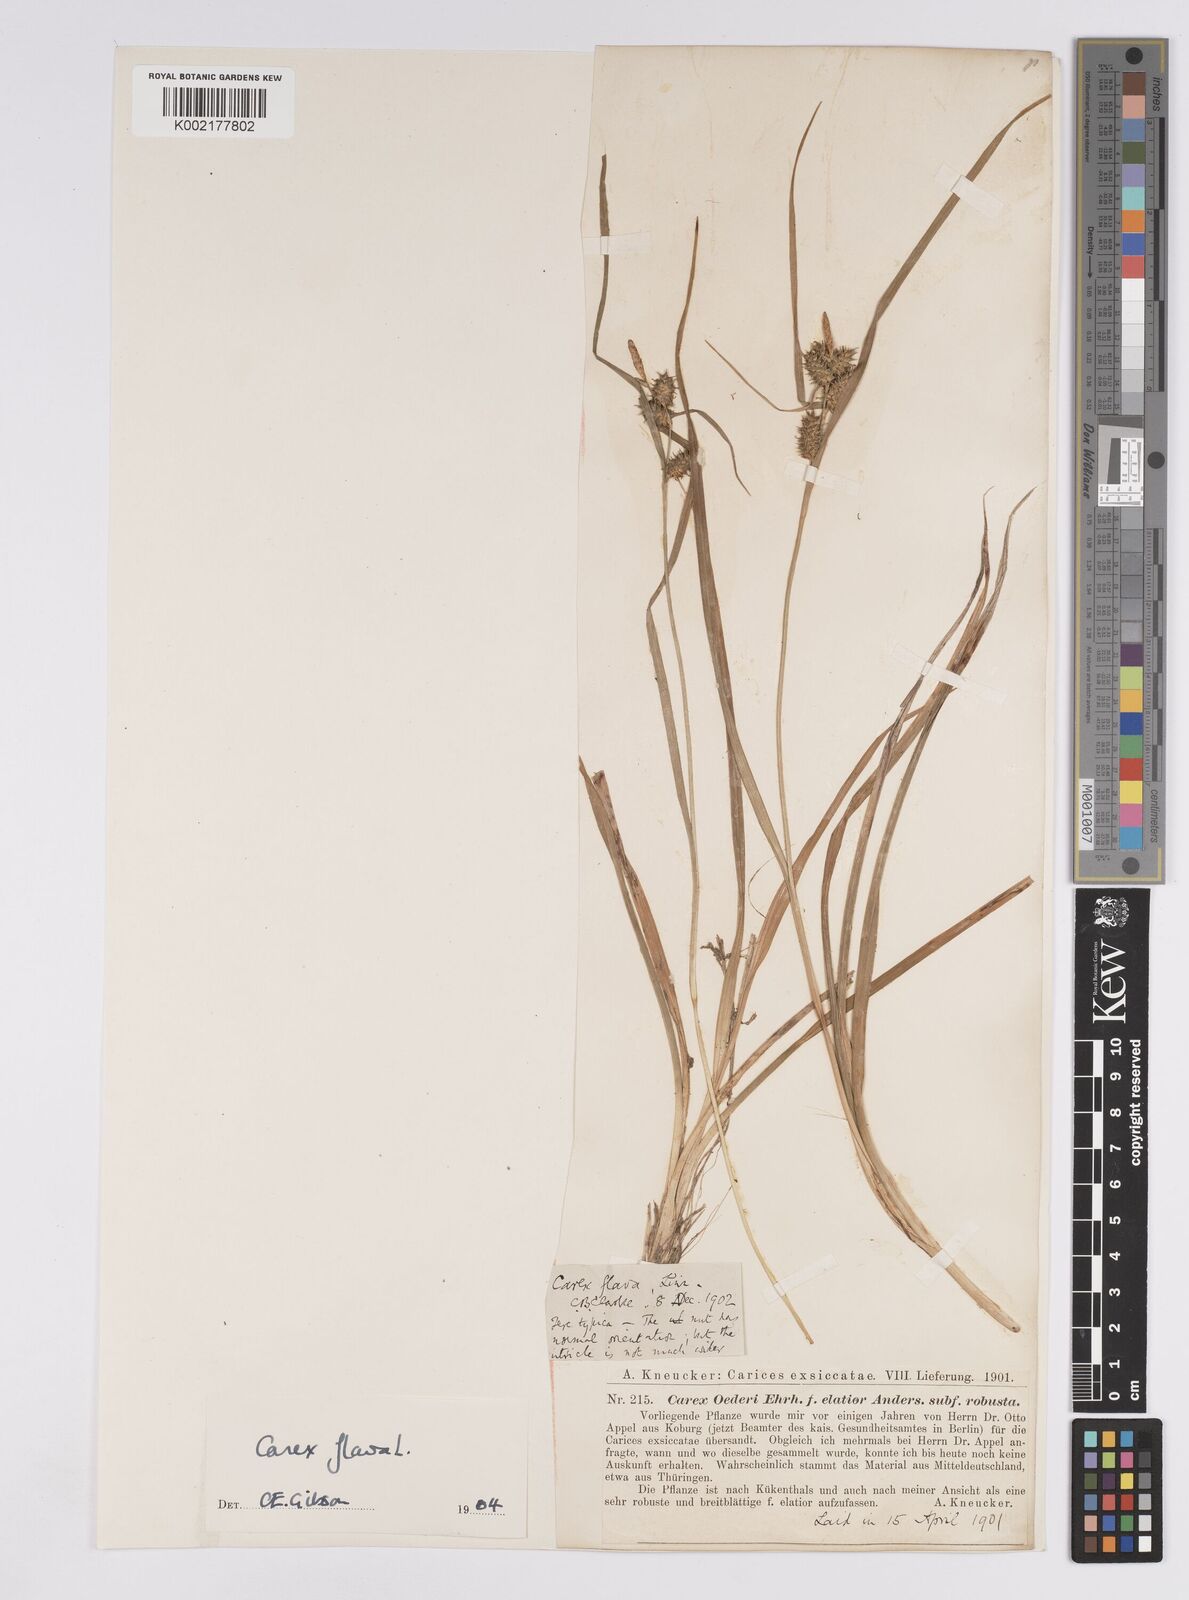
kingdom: Plantae
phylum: Tracheophyta
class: Liliopsida
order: Poales
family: Cyperaceae
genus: Carex
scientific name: Carex flava
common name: Large yellow-sedge
